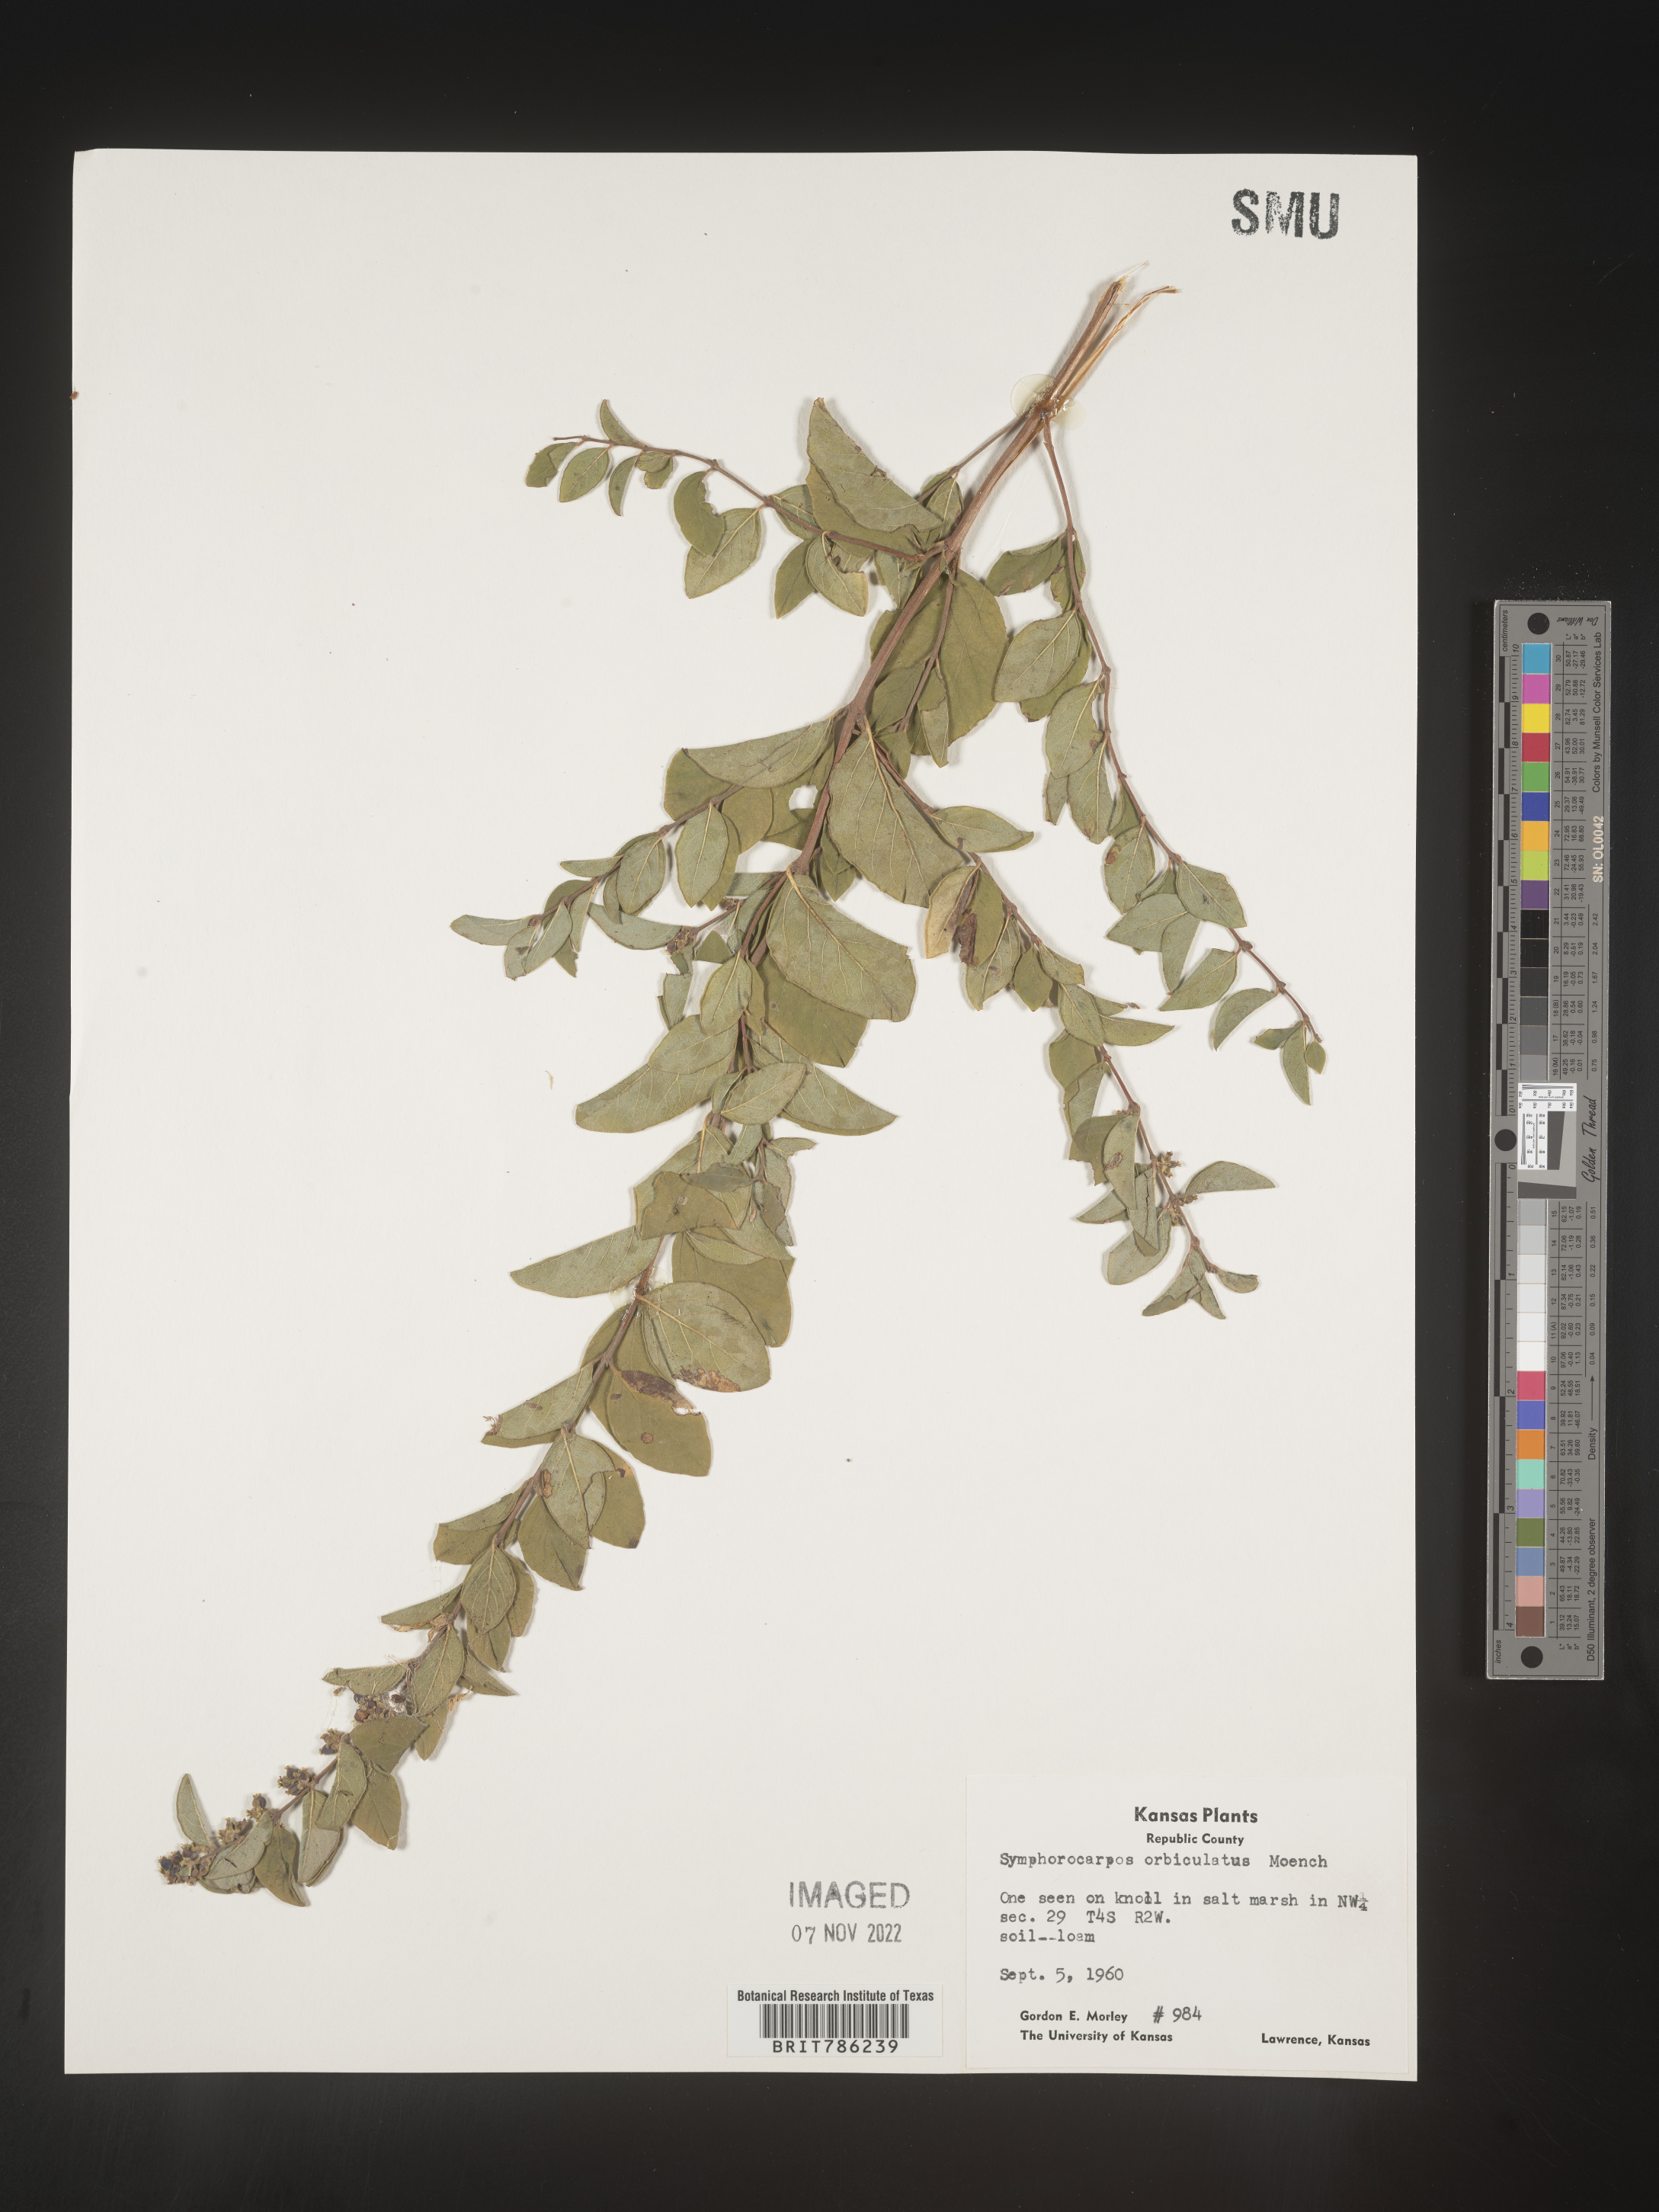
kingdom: Plantae
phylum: Tracheophyta
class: Magnoliopsida
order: Dipsacales
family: Caprifoliaceae
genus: Symphoricarpos
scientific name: Symphoricarpos orbiculatus
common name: Coralberry
